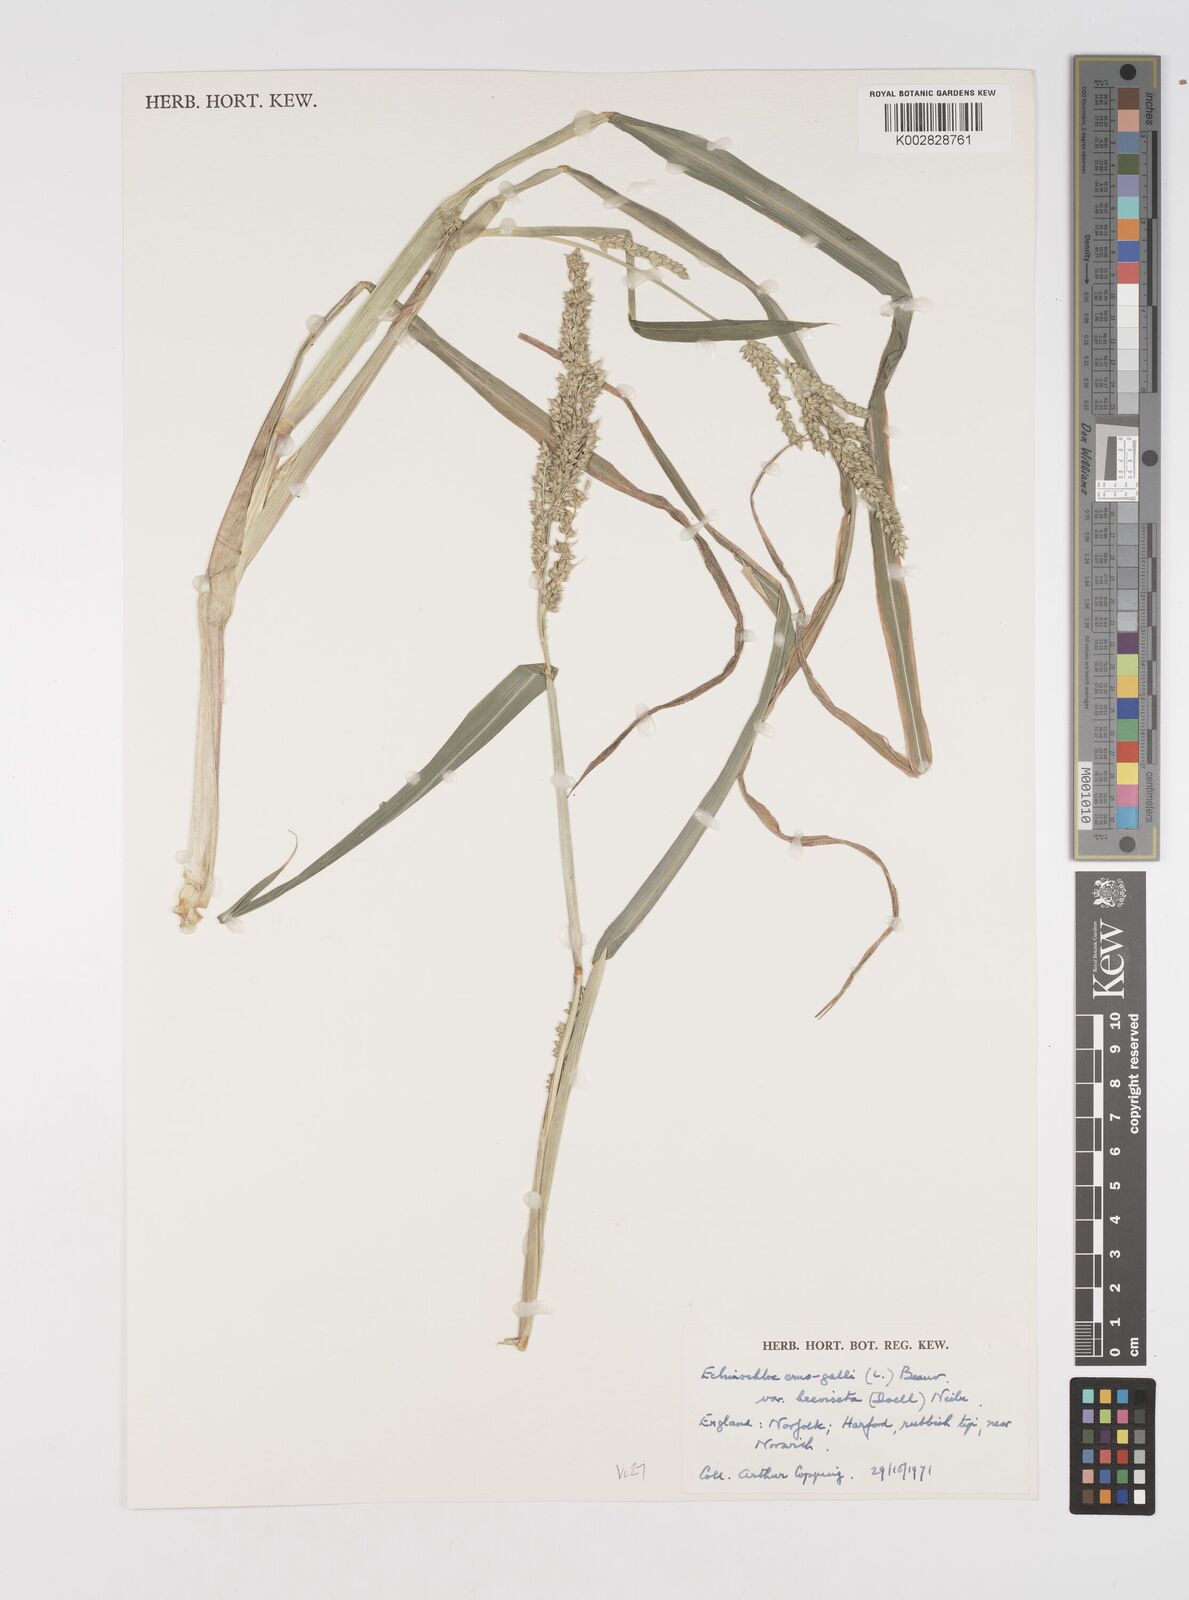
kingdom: Plantae
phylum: Tracheophyta
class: Liliopsida
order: Poales
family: Poaceae
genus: Echinochloa
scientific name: Echinochloa crus-galli
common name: Cockspur
